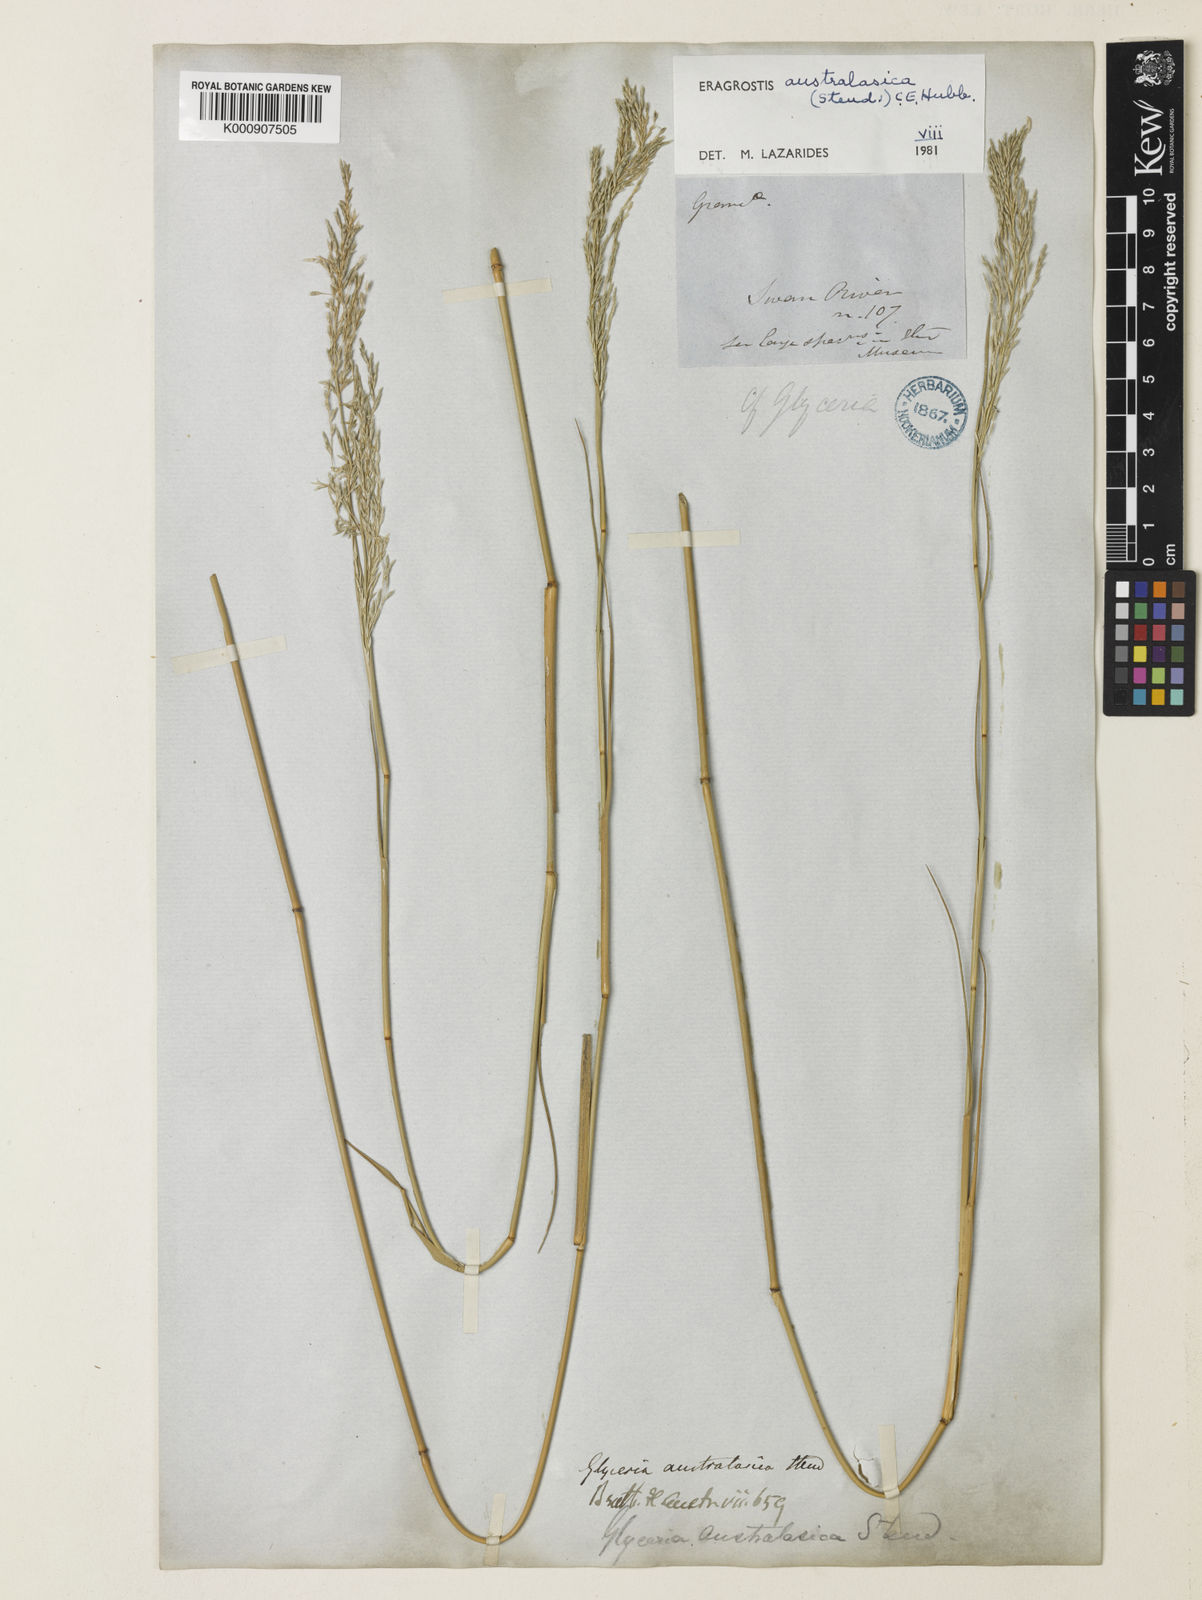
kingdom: Plantae
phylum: Tracheophyta
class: Liliopsida
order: Poales
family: Poaceae
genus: Sporobolus
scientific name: Sporobolus ramigerus
